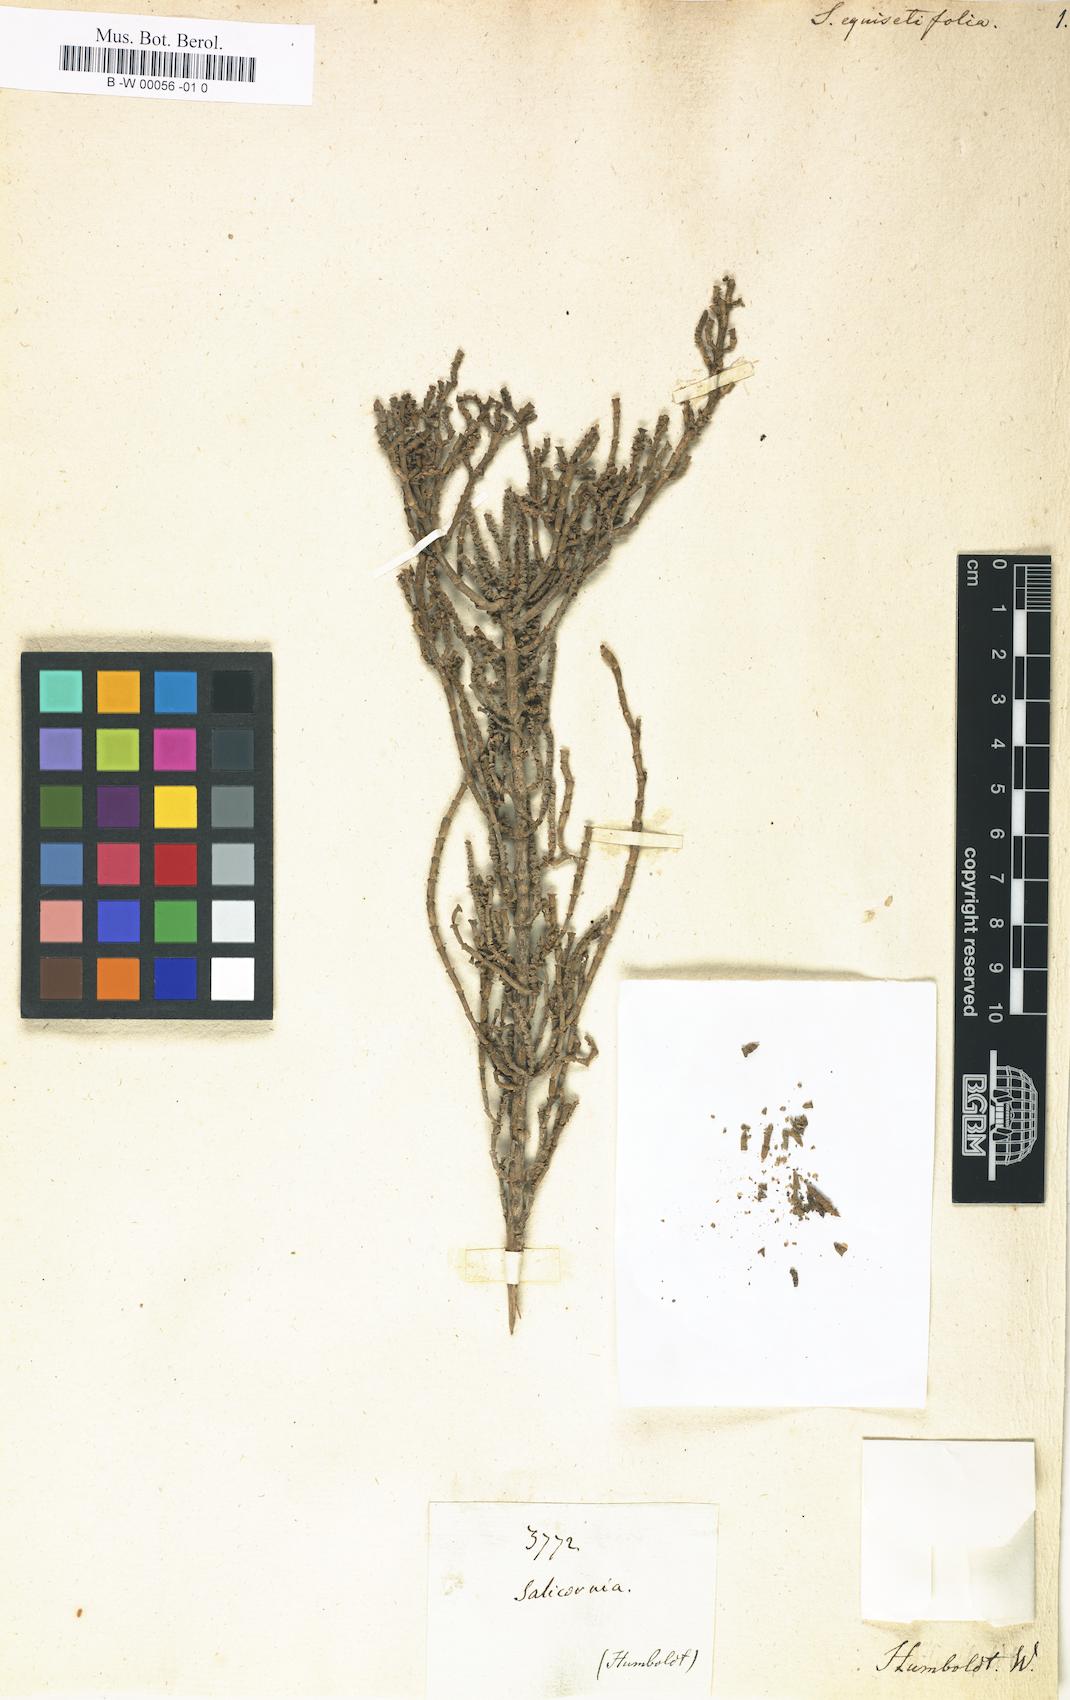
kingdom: Plantae
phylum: Tracheophyta
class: Magnoliopsida
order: Caryophyllales
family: Amaranthaceae
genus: Salicornia
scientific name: Salicornia fruticosa
